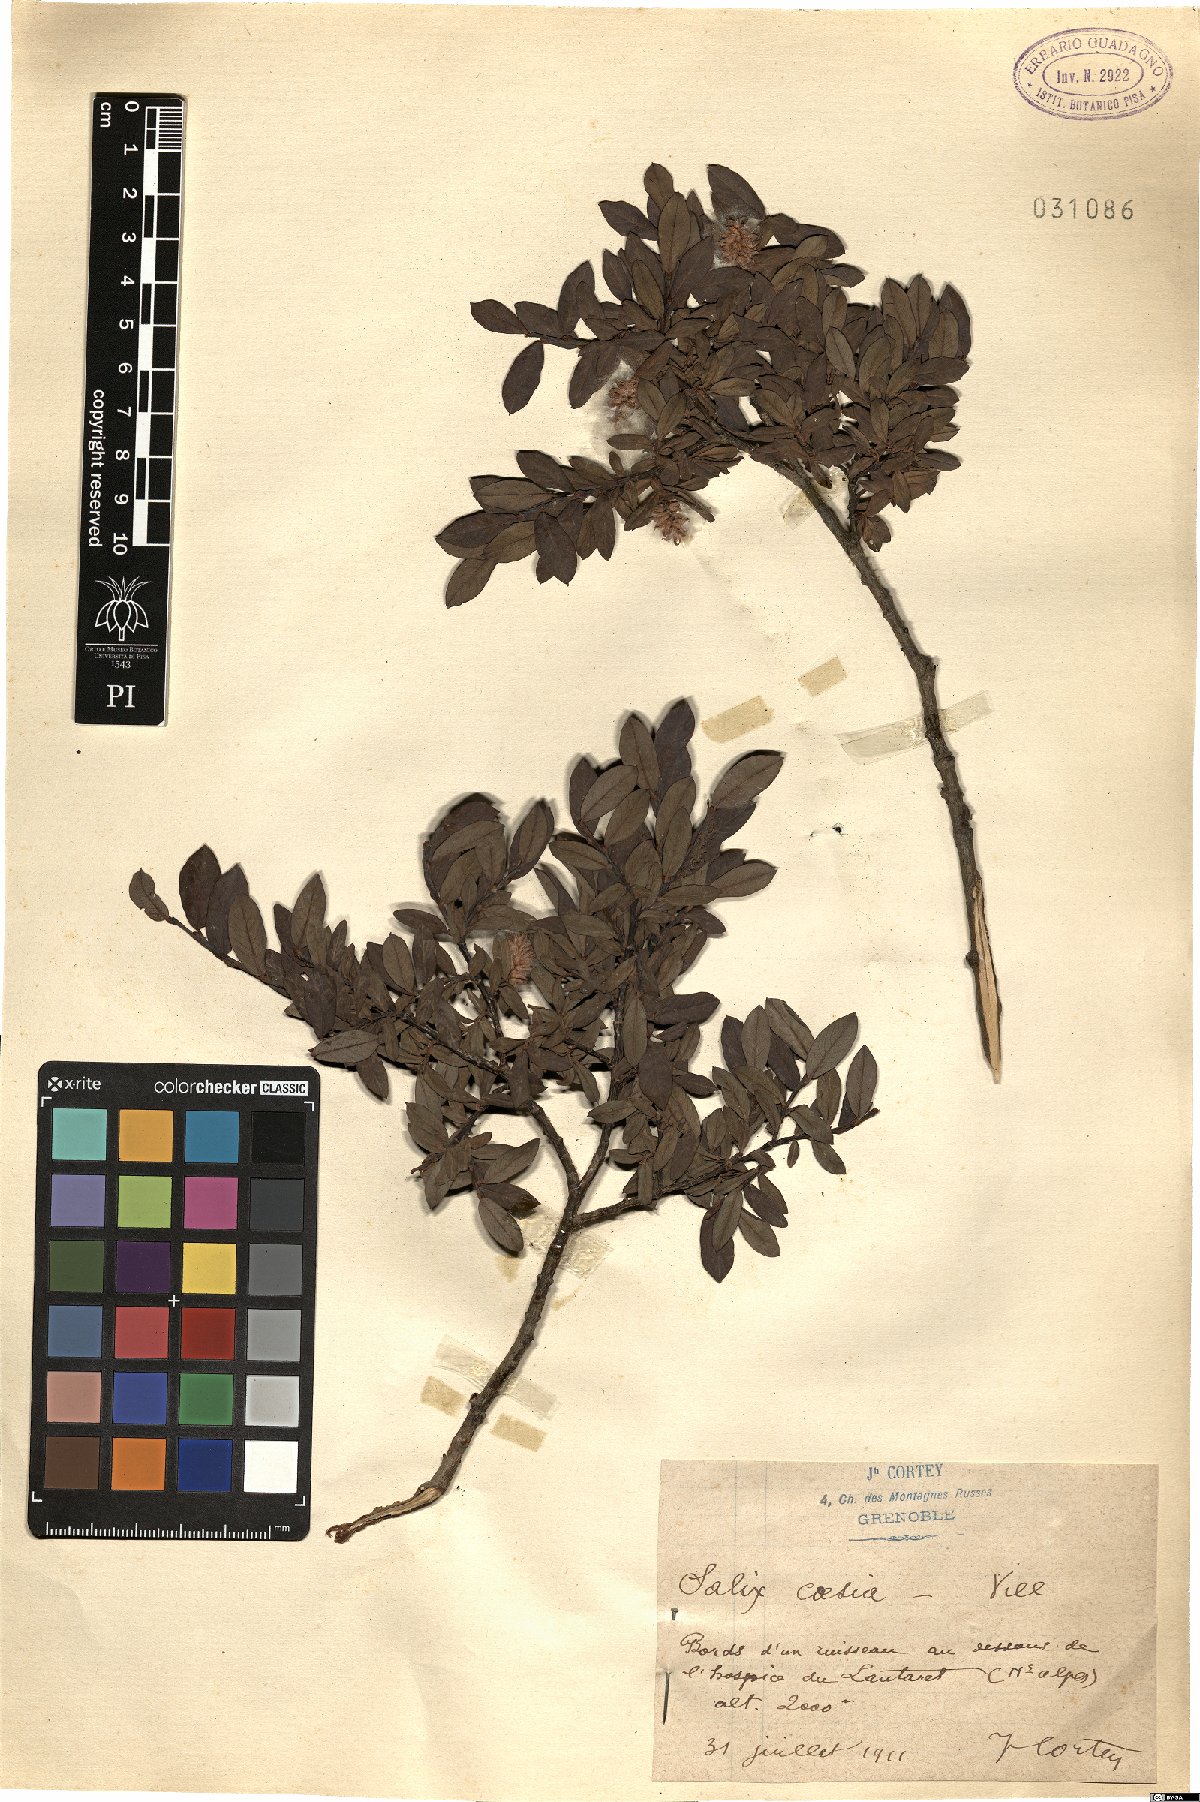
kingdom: Plantae
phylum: Tracheophyta
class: Magnoliopsida
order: Malpighiales
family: Salicaceae
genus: Salix
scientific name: Salix caesia
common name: Blue willow
